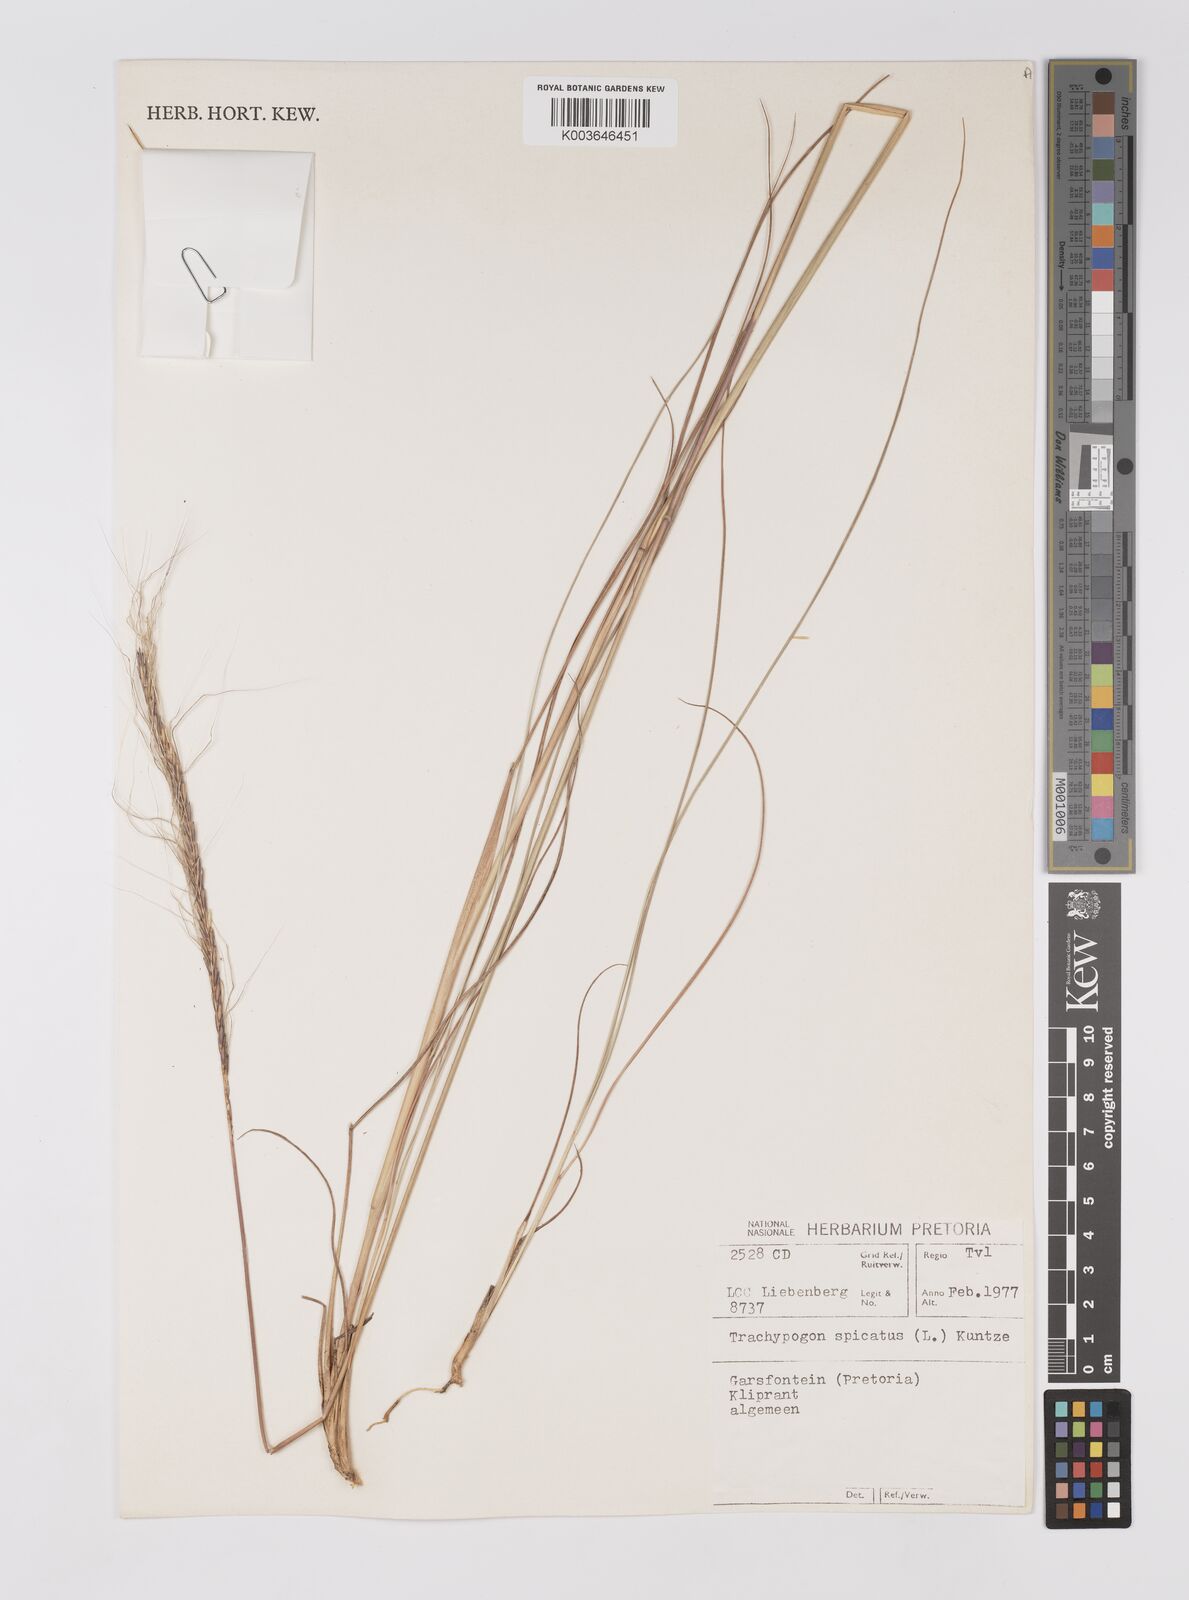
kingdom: Plantae
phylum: Tracheophyta
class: Liliopsida
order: Poales
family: Poaceae
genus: Trachypogon
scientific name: Trachypogon spicatus
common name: Crinkle-awn
